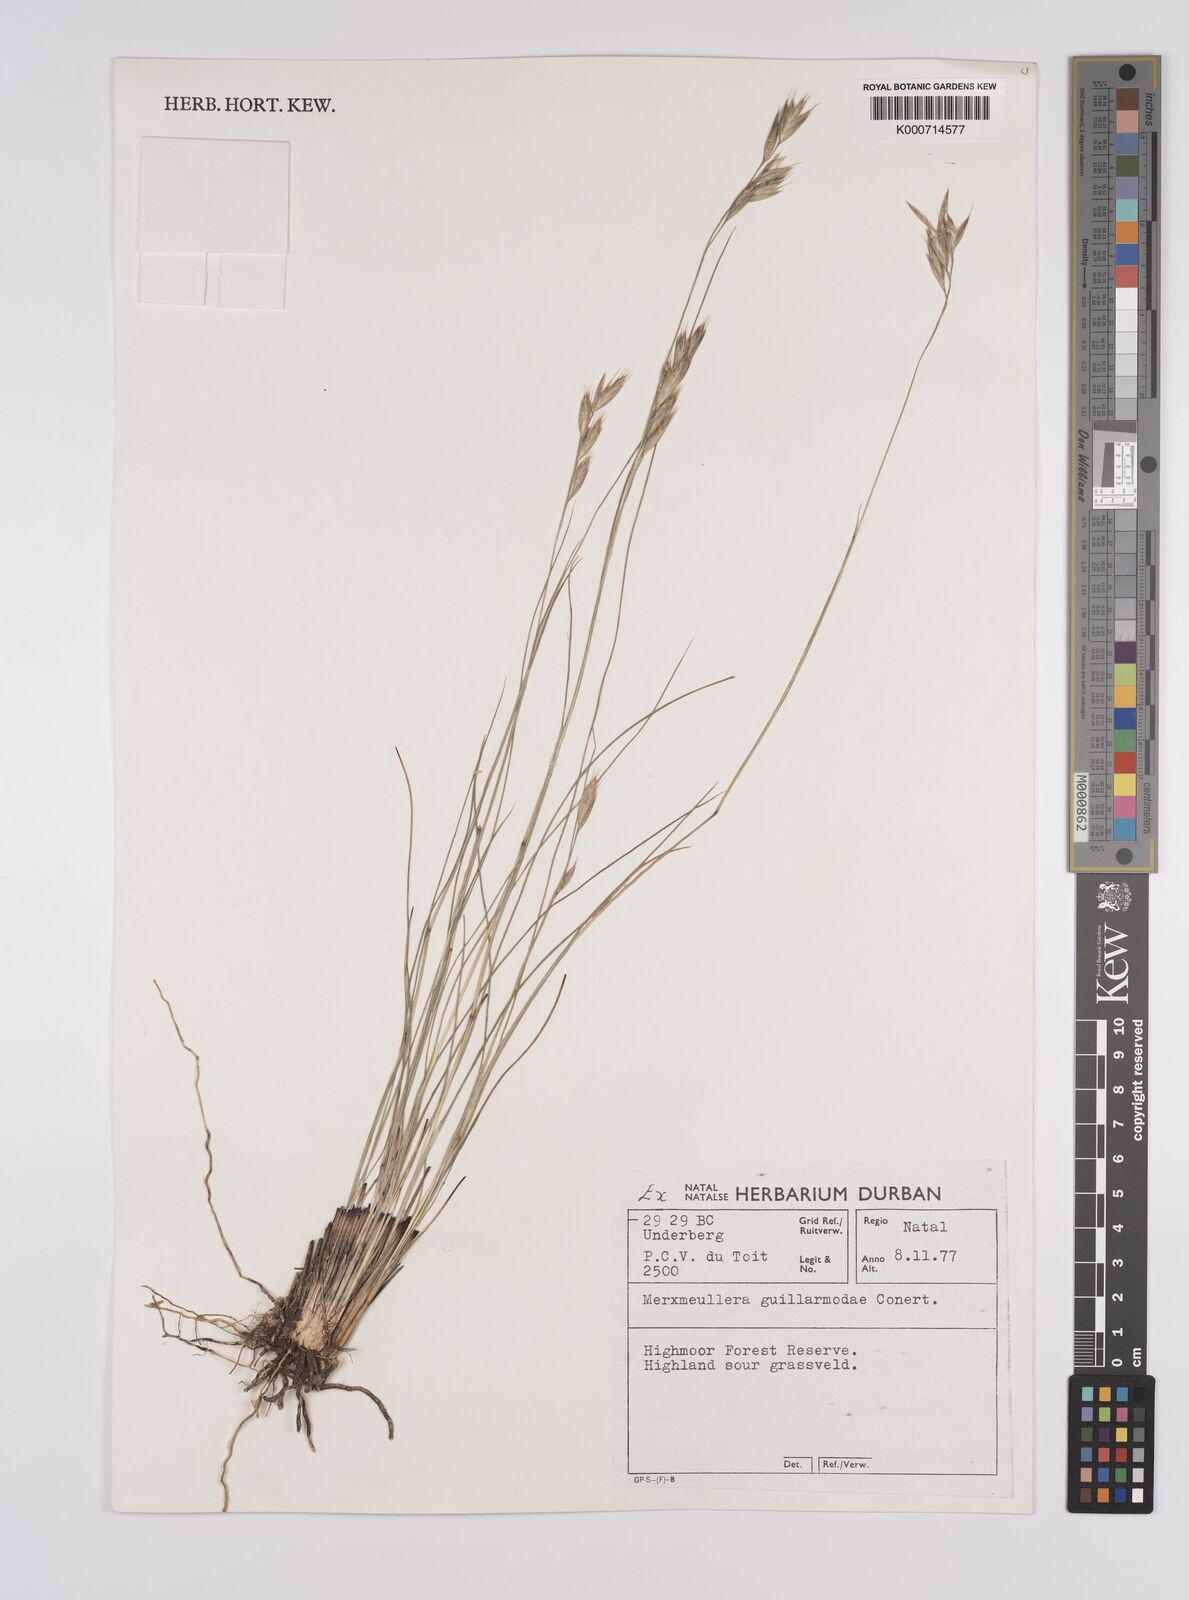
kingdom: Plantae
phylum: Tracheophyta
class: Liliopsida
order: Poales
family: Poaceae
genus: Rytidosperma
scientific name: Rytidosperma
